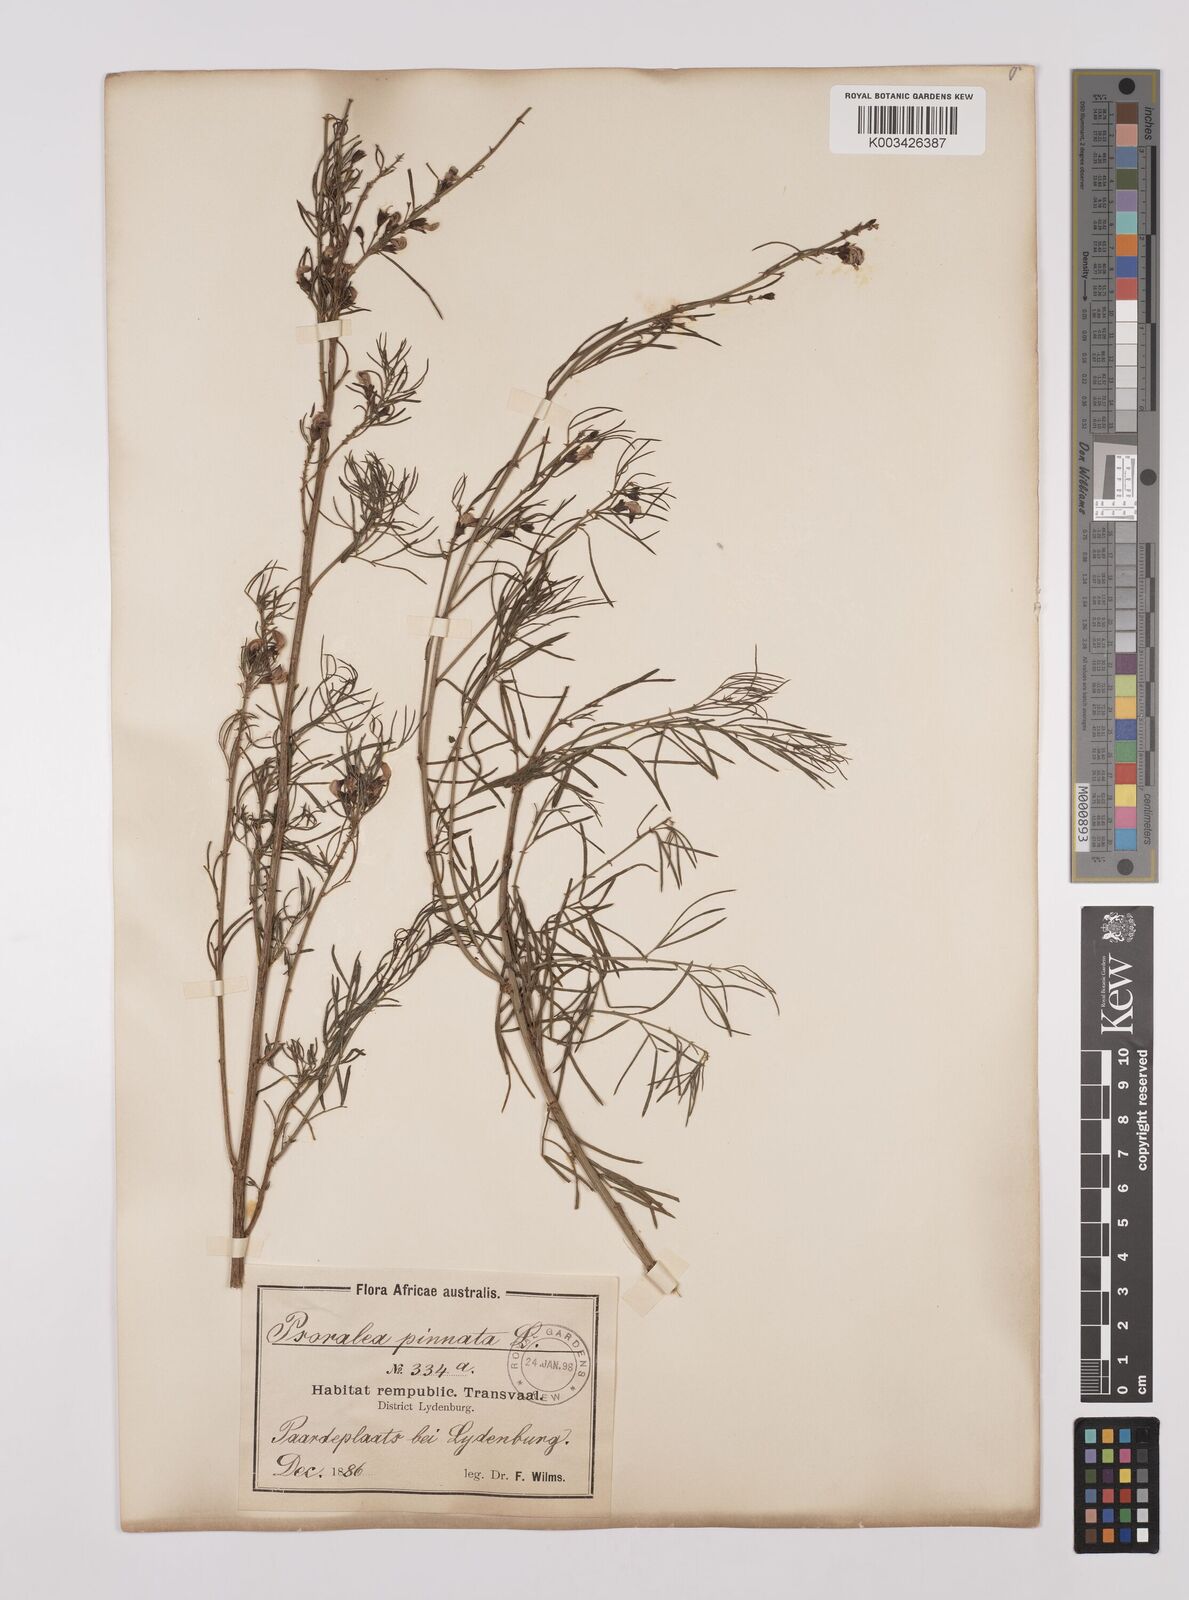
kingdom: Plantae
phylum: Tracheophyta
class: Magnoliopsida
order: Fabales
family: Fabaceae
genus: Psoralea
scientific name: Psoralea rhizotoma
